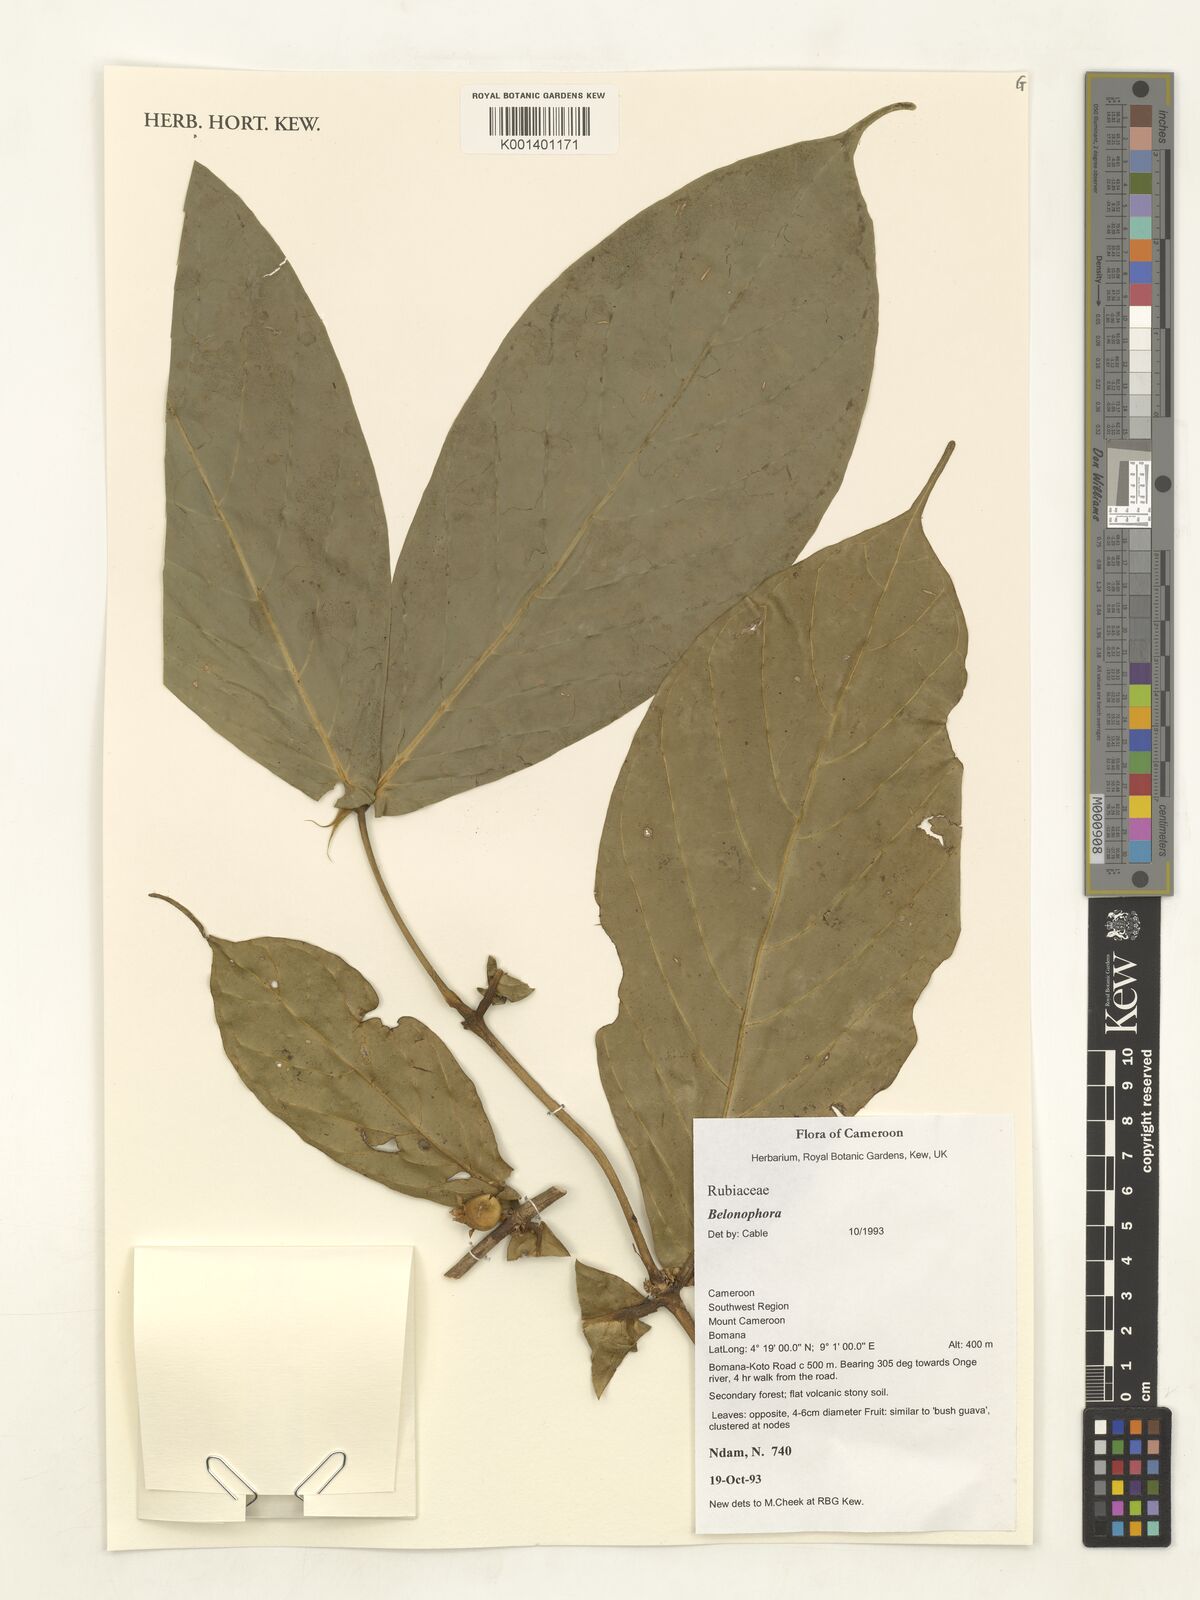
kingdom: Plantae
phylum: Tracheophyta
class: Magnoliopsida
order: Gentianales
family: Rubiaceae
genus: Belonophora
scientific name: Belonophora
